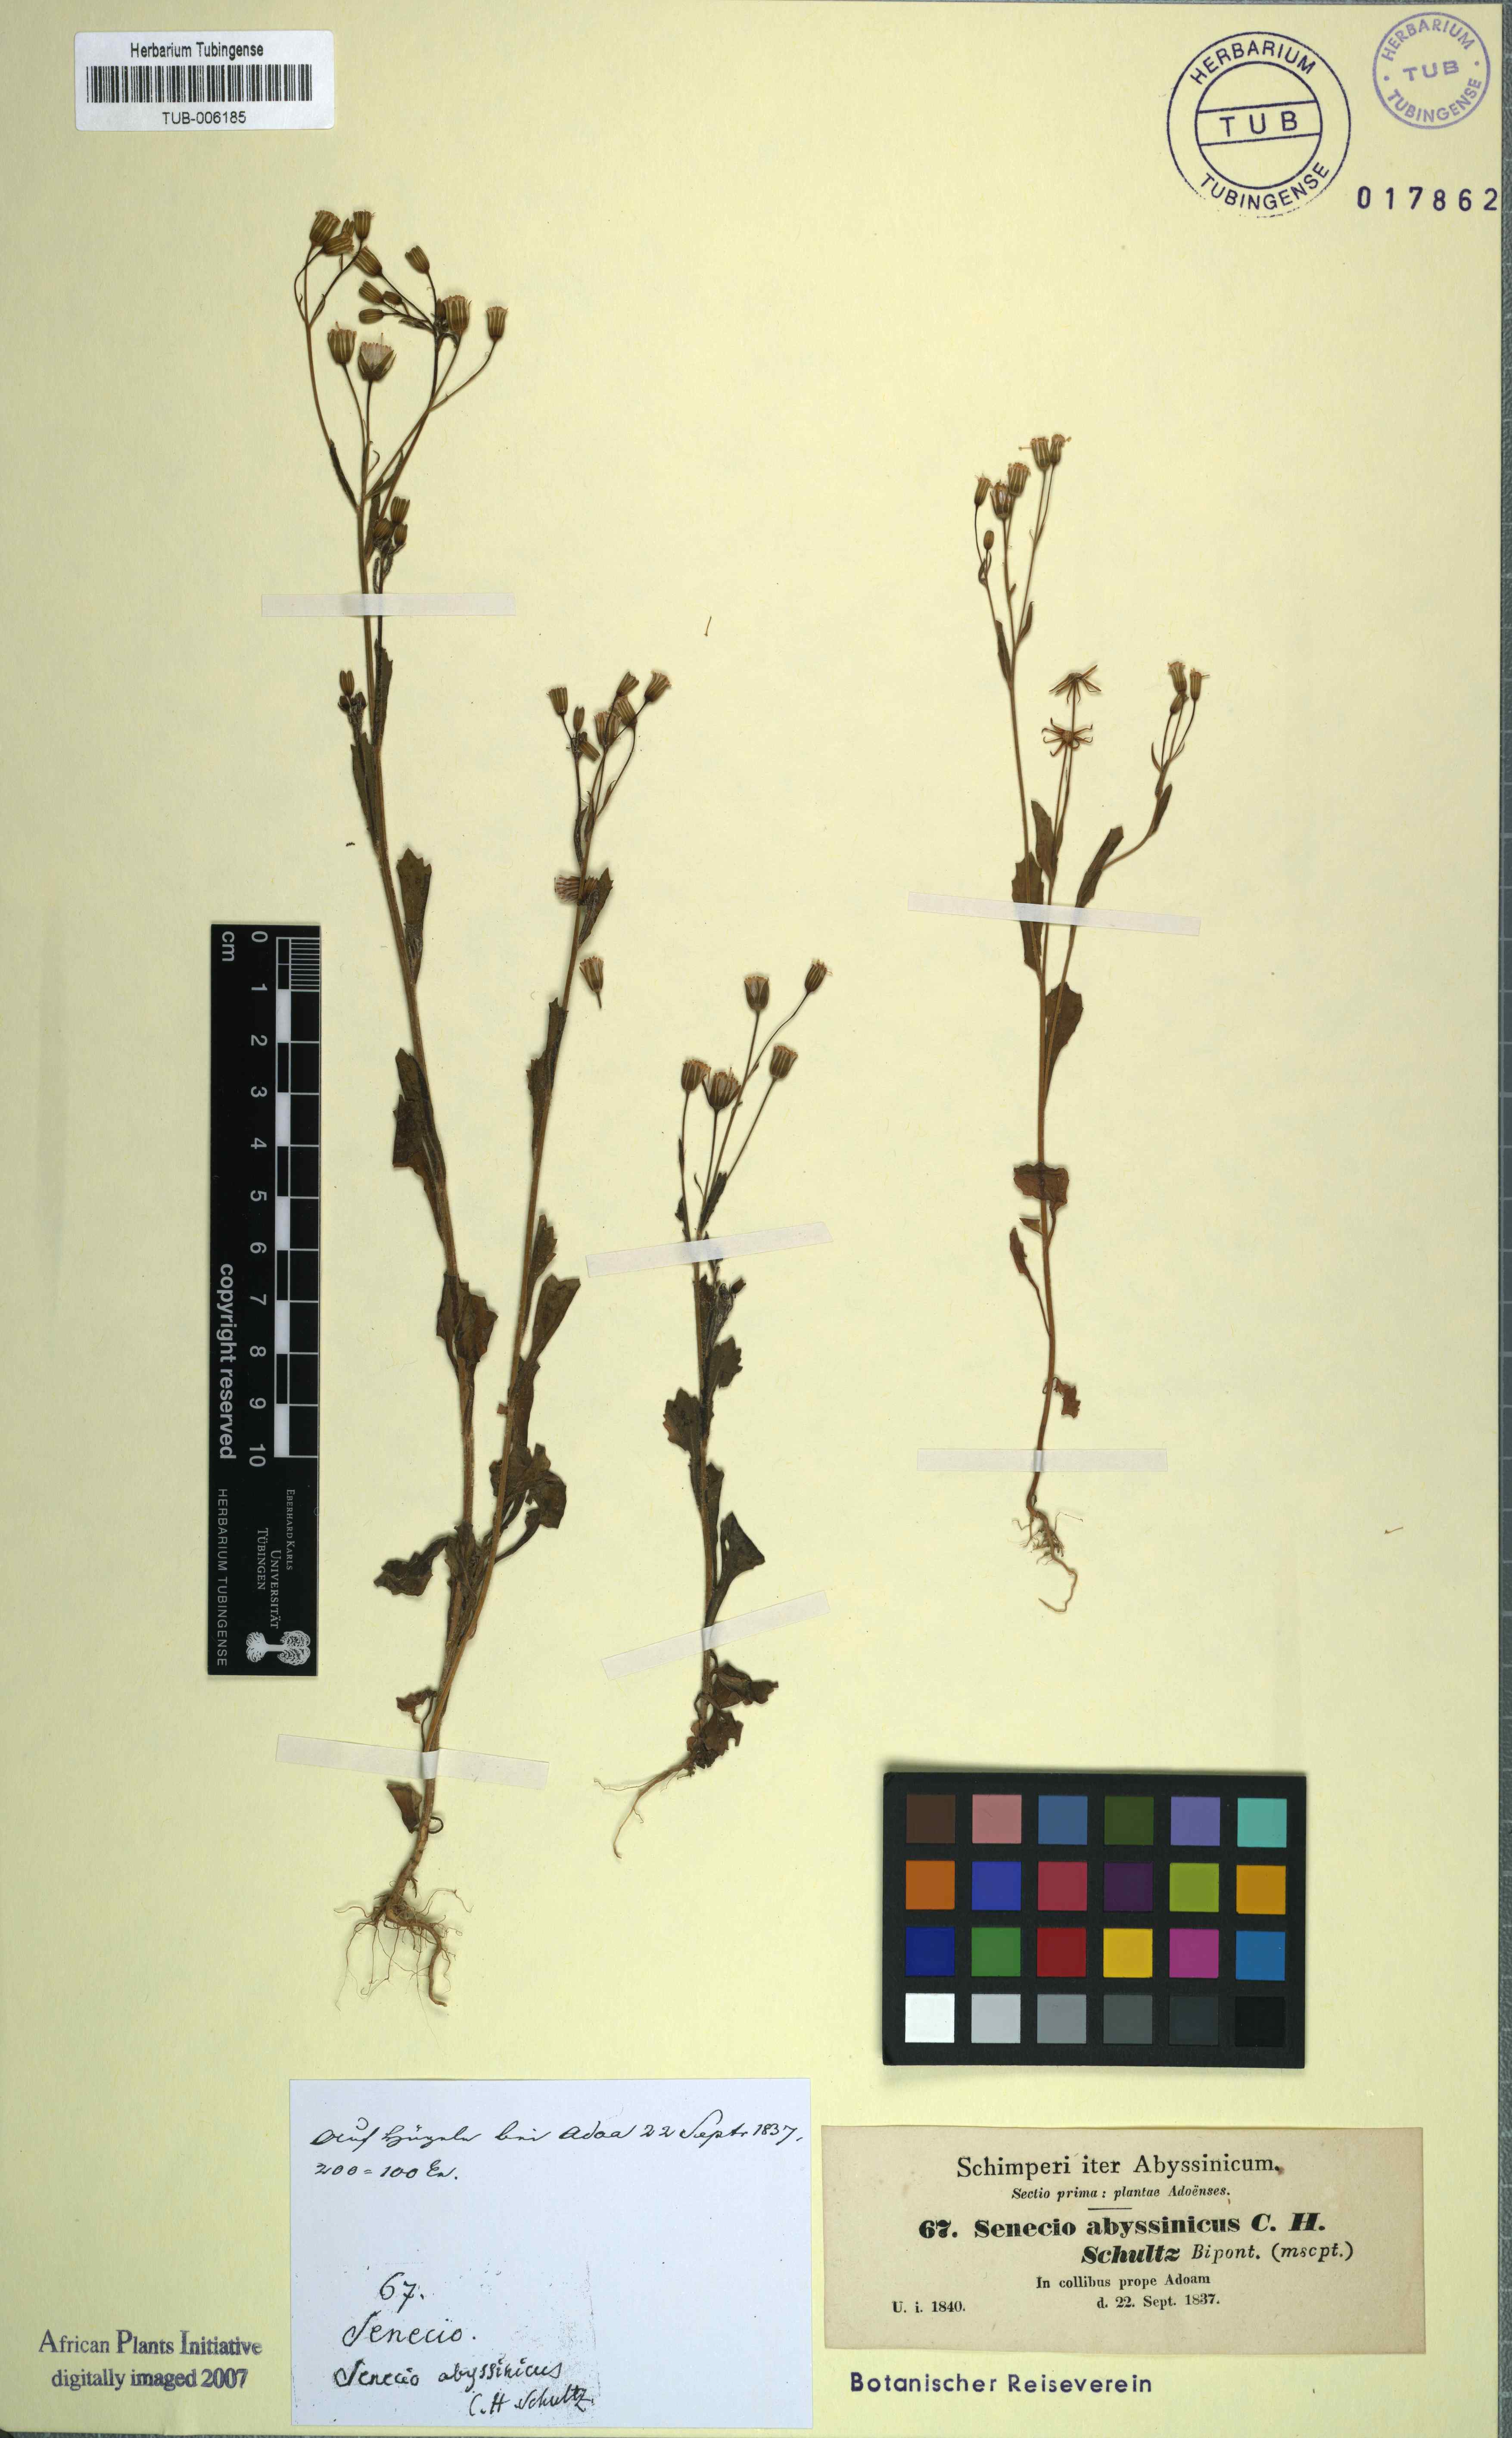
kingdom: Plantae
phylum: Tracheophyta
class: Magnoliopsida
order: Asterales
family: Asteraceae
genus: Emilia
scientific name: Emilia abyssinica
